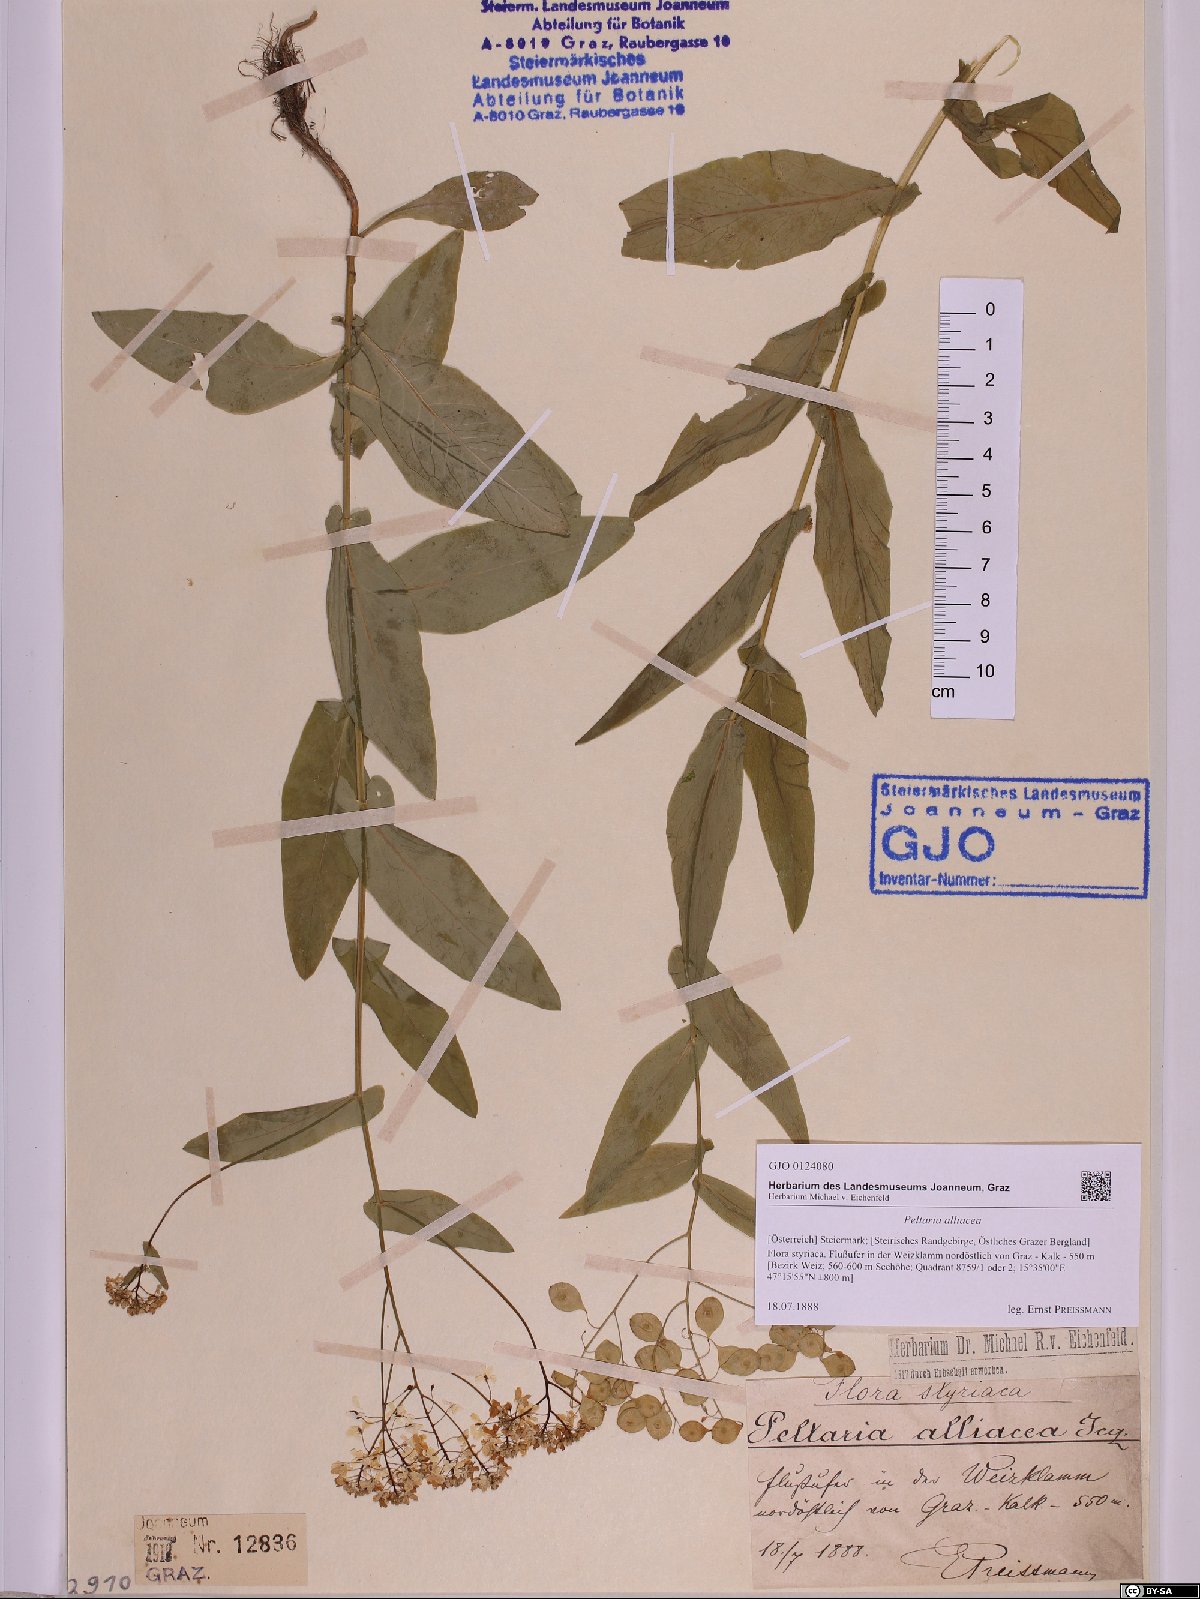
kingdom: Plantae
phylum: Tracheophyta
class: Magnoliopsida
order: Brassicales
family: Brassicaceae
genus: Peltaria
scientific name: Peltaria alliacea
